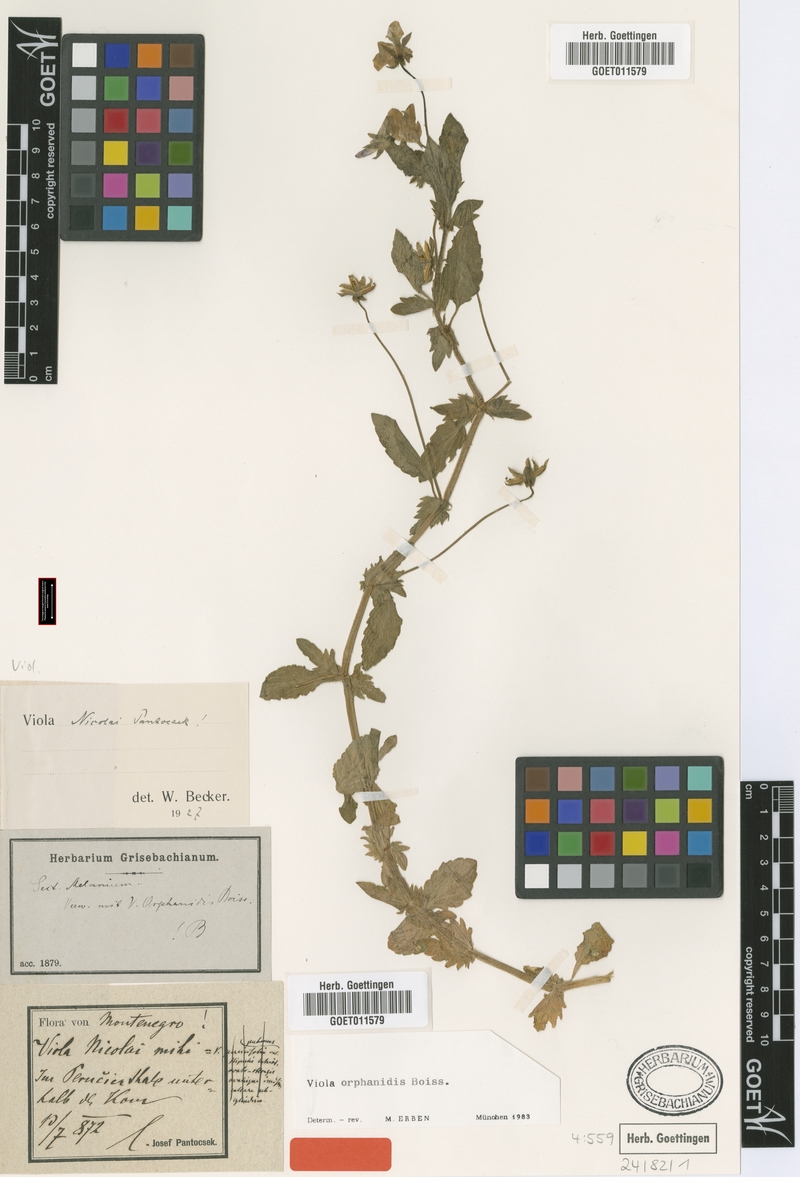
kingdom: Plantae
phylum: Tracheophyta
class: Magnoliopsida
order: Malpighiales
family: Violaceae
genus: Viola
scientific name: Viola orphanidis
